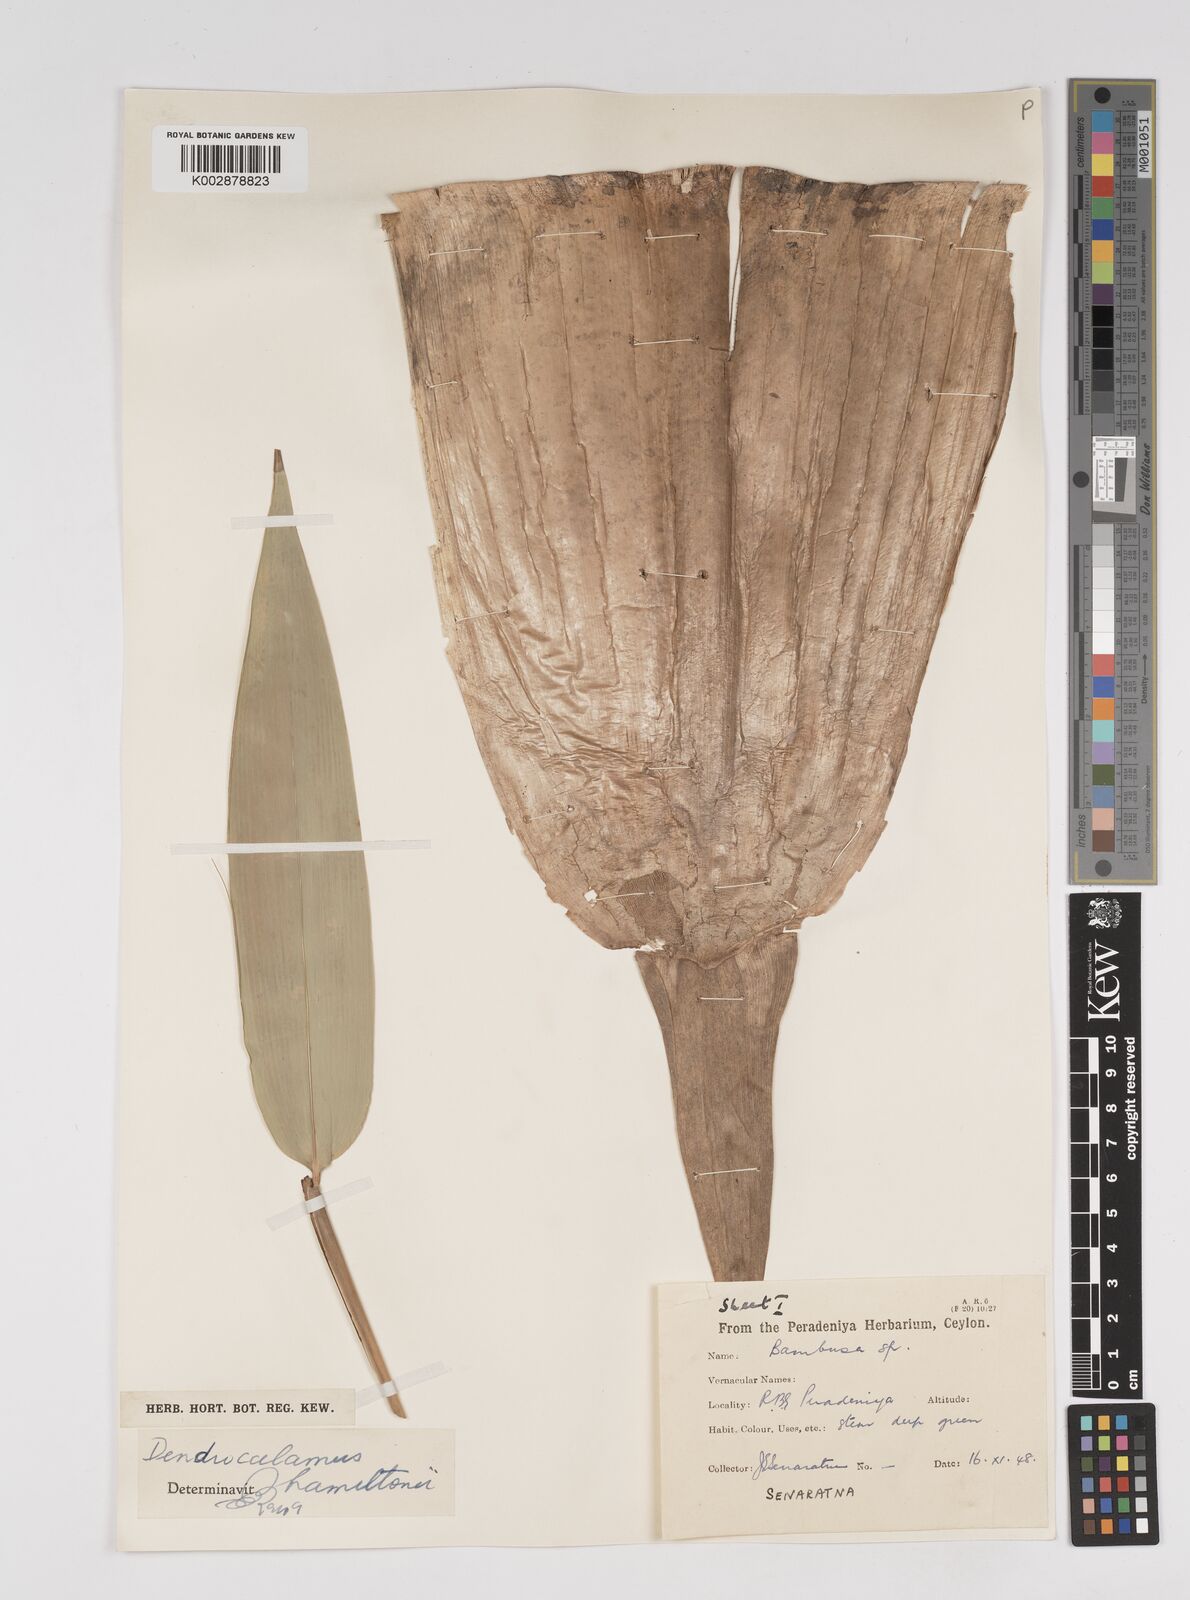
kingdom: Plantae
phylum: Tracheophyta
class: Liliopsida
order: Poales
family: Poaceae
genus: Dendrocalamus
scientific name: Dendrocalamus hamiltonii
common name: Tama bamboo
